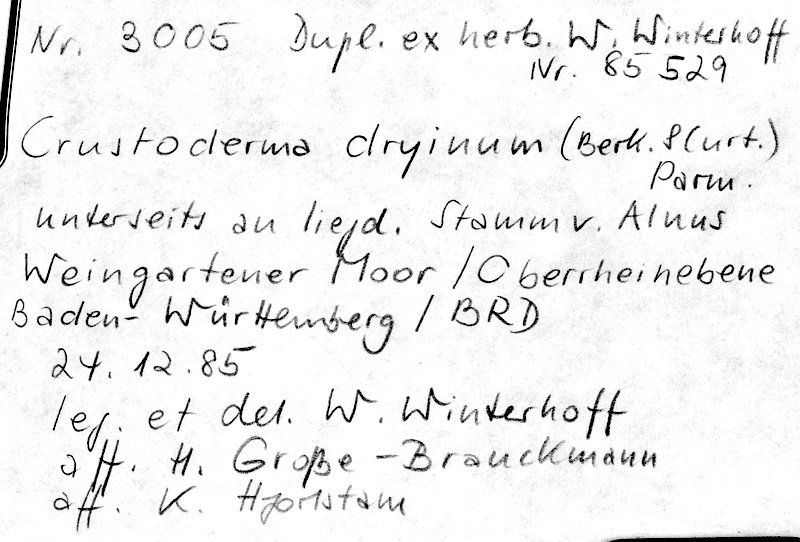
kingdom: Fungi
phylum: Basidiomycota
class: Agaricomycetes
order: Polyporales
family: Sparassidaceae
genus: Crustoderma
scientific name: Crustoderma dryinum
